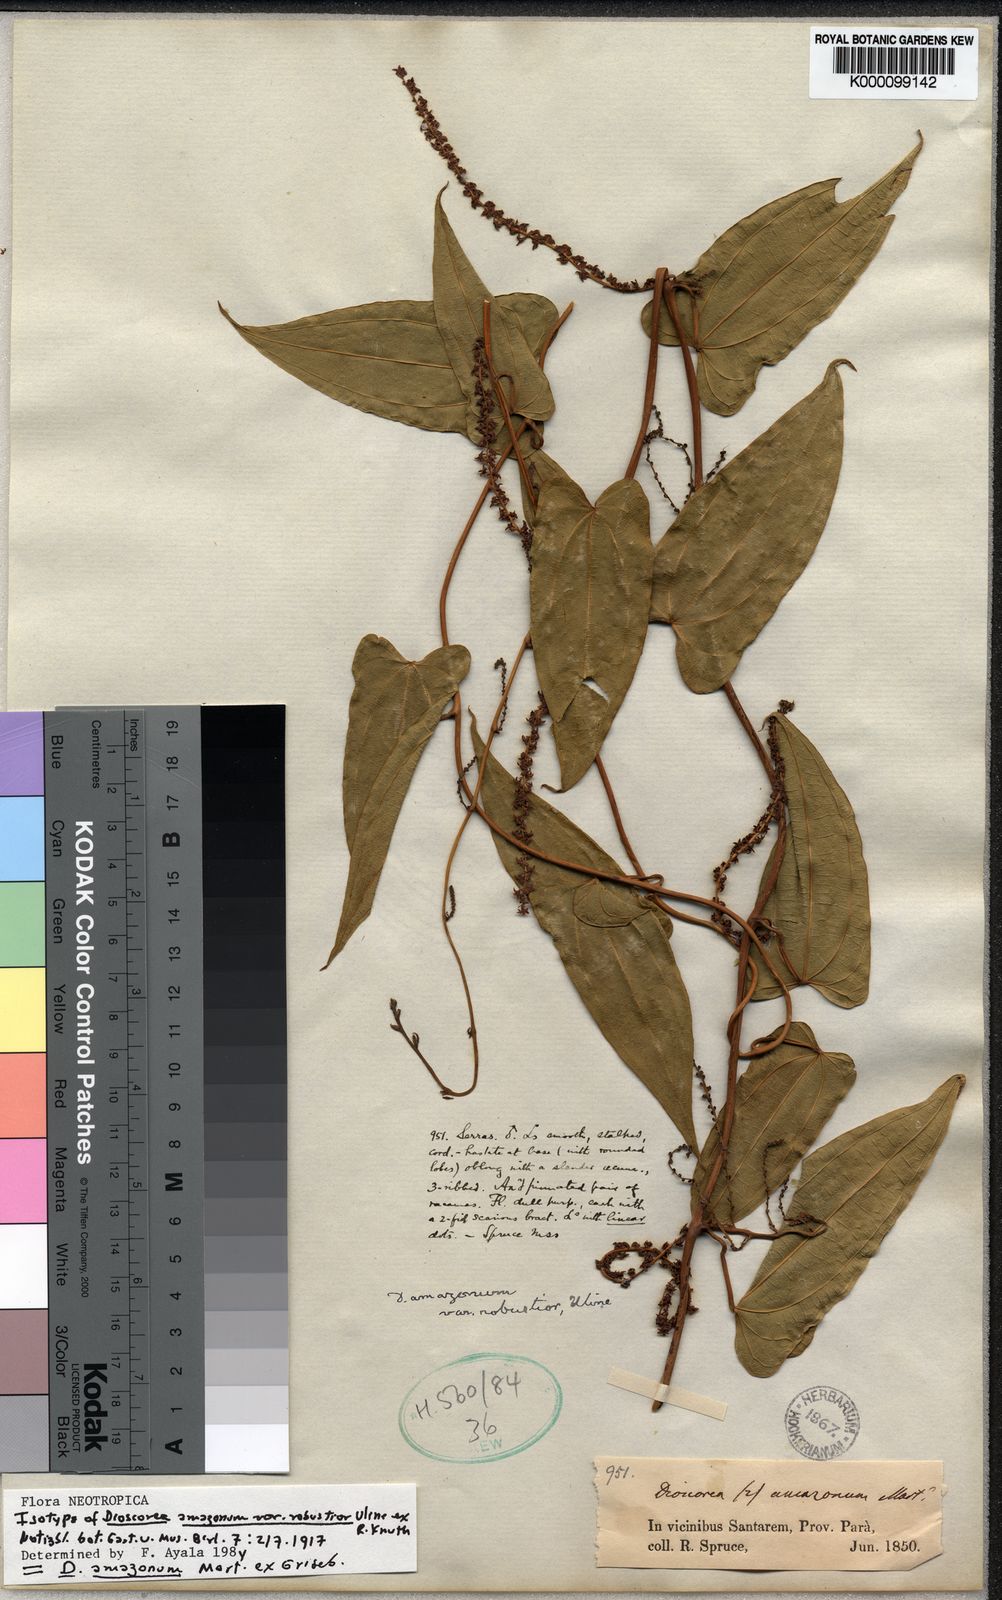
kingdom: Plantae
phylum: Tracheophyta
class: Liliopsida
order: Dioscoreales
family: Dioscoreaceae
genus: Dioscorea
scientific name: Dioscorea amazonum
